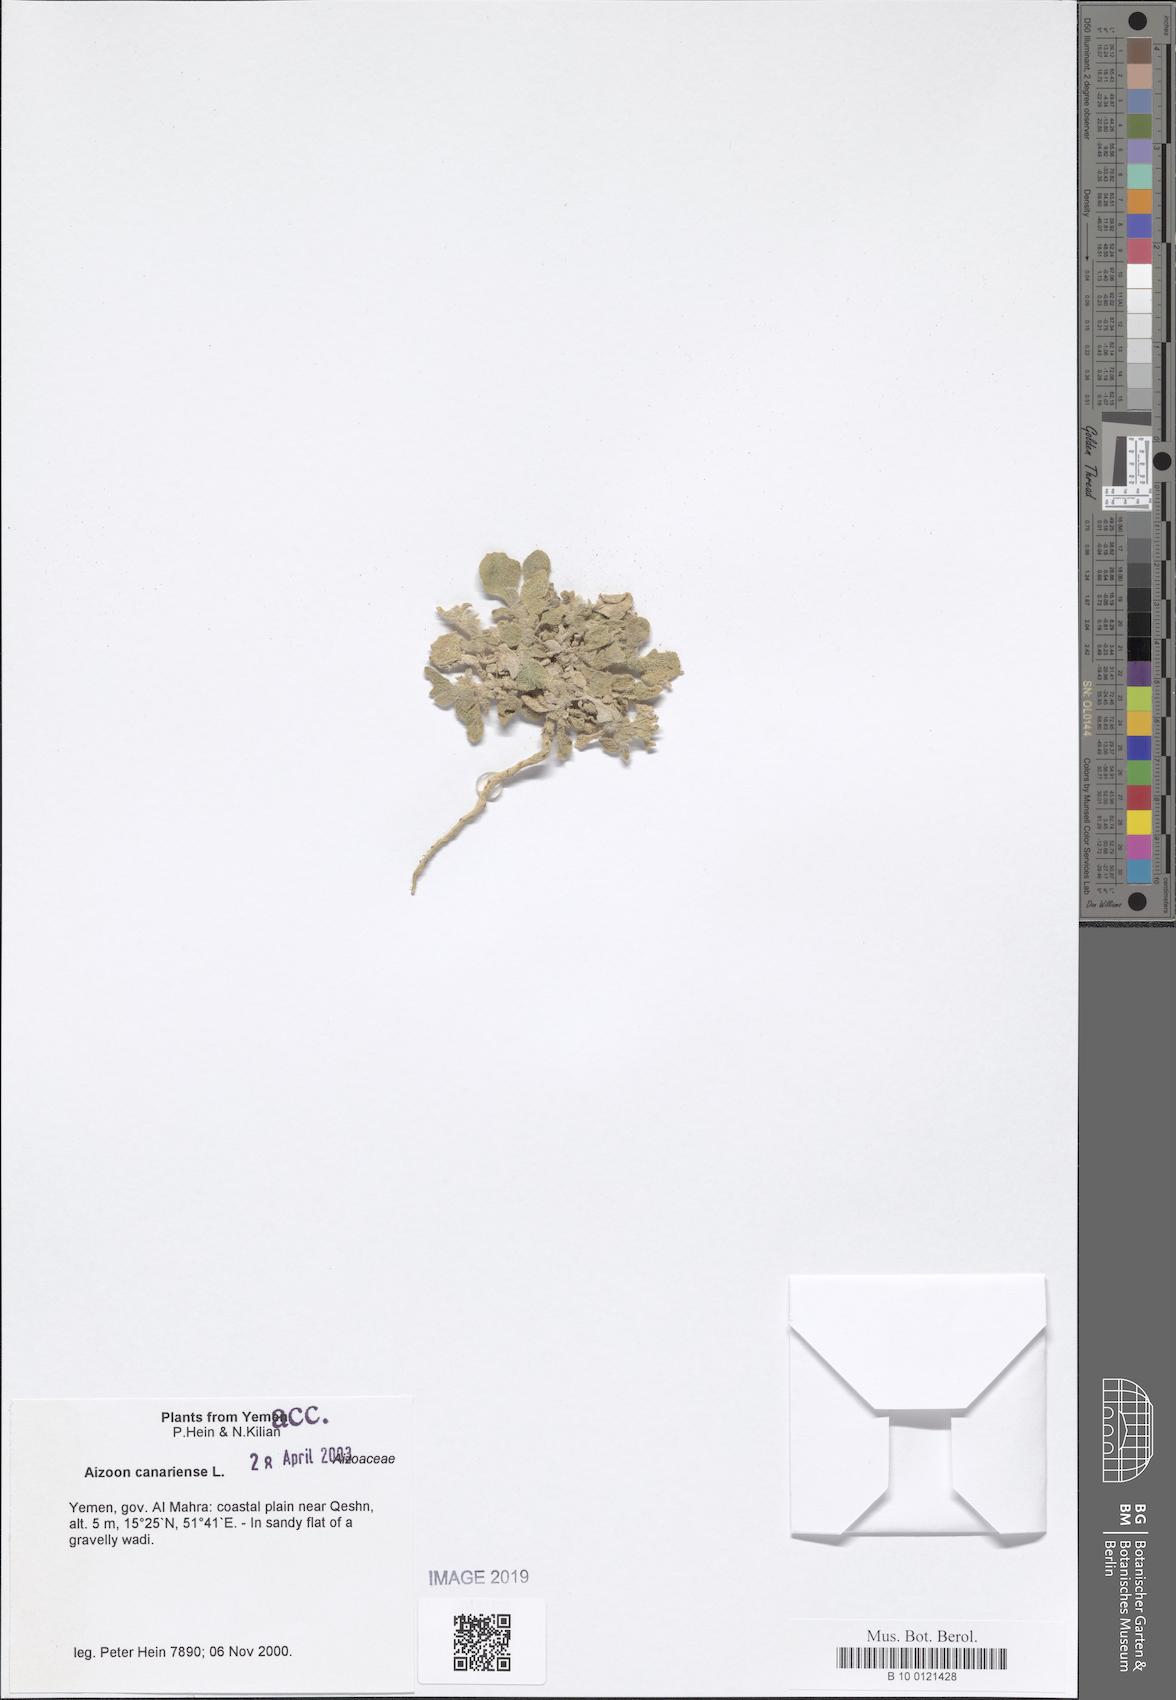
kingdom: Plantae
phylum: Tracheophyta
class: Magnoliopsida
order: Caryophyllales
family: Aizoaceae
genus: Aizoon
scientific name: Aizoon canariense
